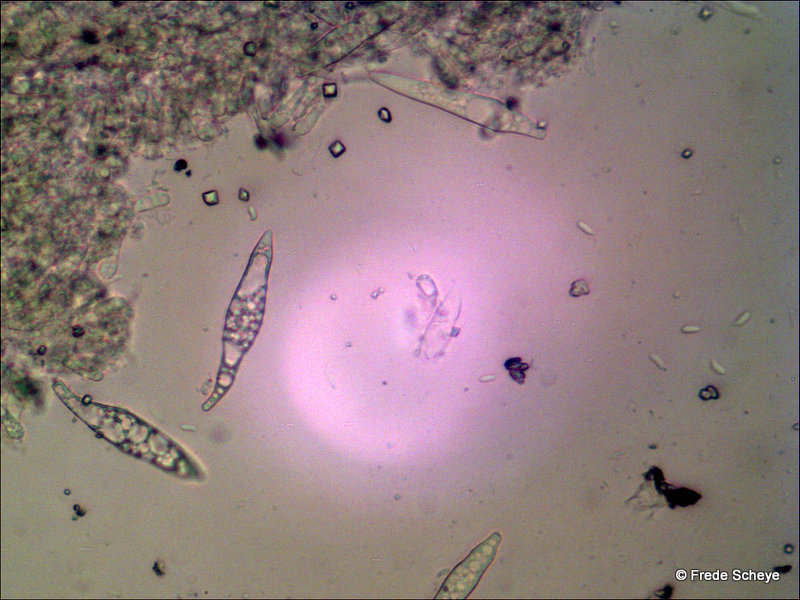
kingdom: Fungi
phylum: Basidiomycota
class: Agaricomycetes
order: Agaricales
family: Physalacriaceae
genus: Strobilurus
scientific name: Strobilurus tenacellus
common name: sommer-koglehat
